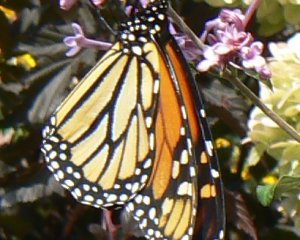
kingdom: Animalia
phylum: Arthropoda
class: Insecta
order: Lepidoptera
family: Nymphalidae
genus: Danaus
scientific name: Danaus plexippus
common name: Monarch
